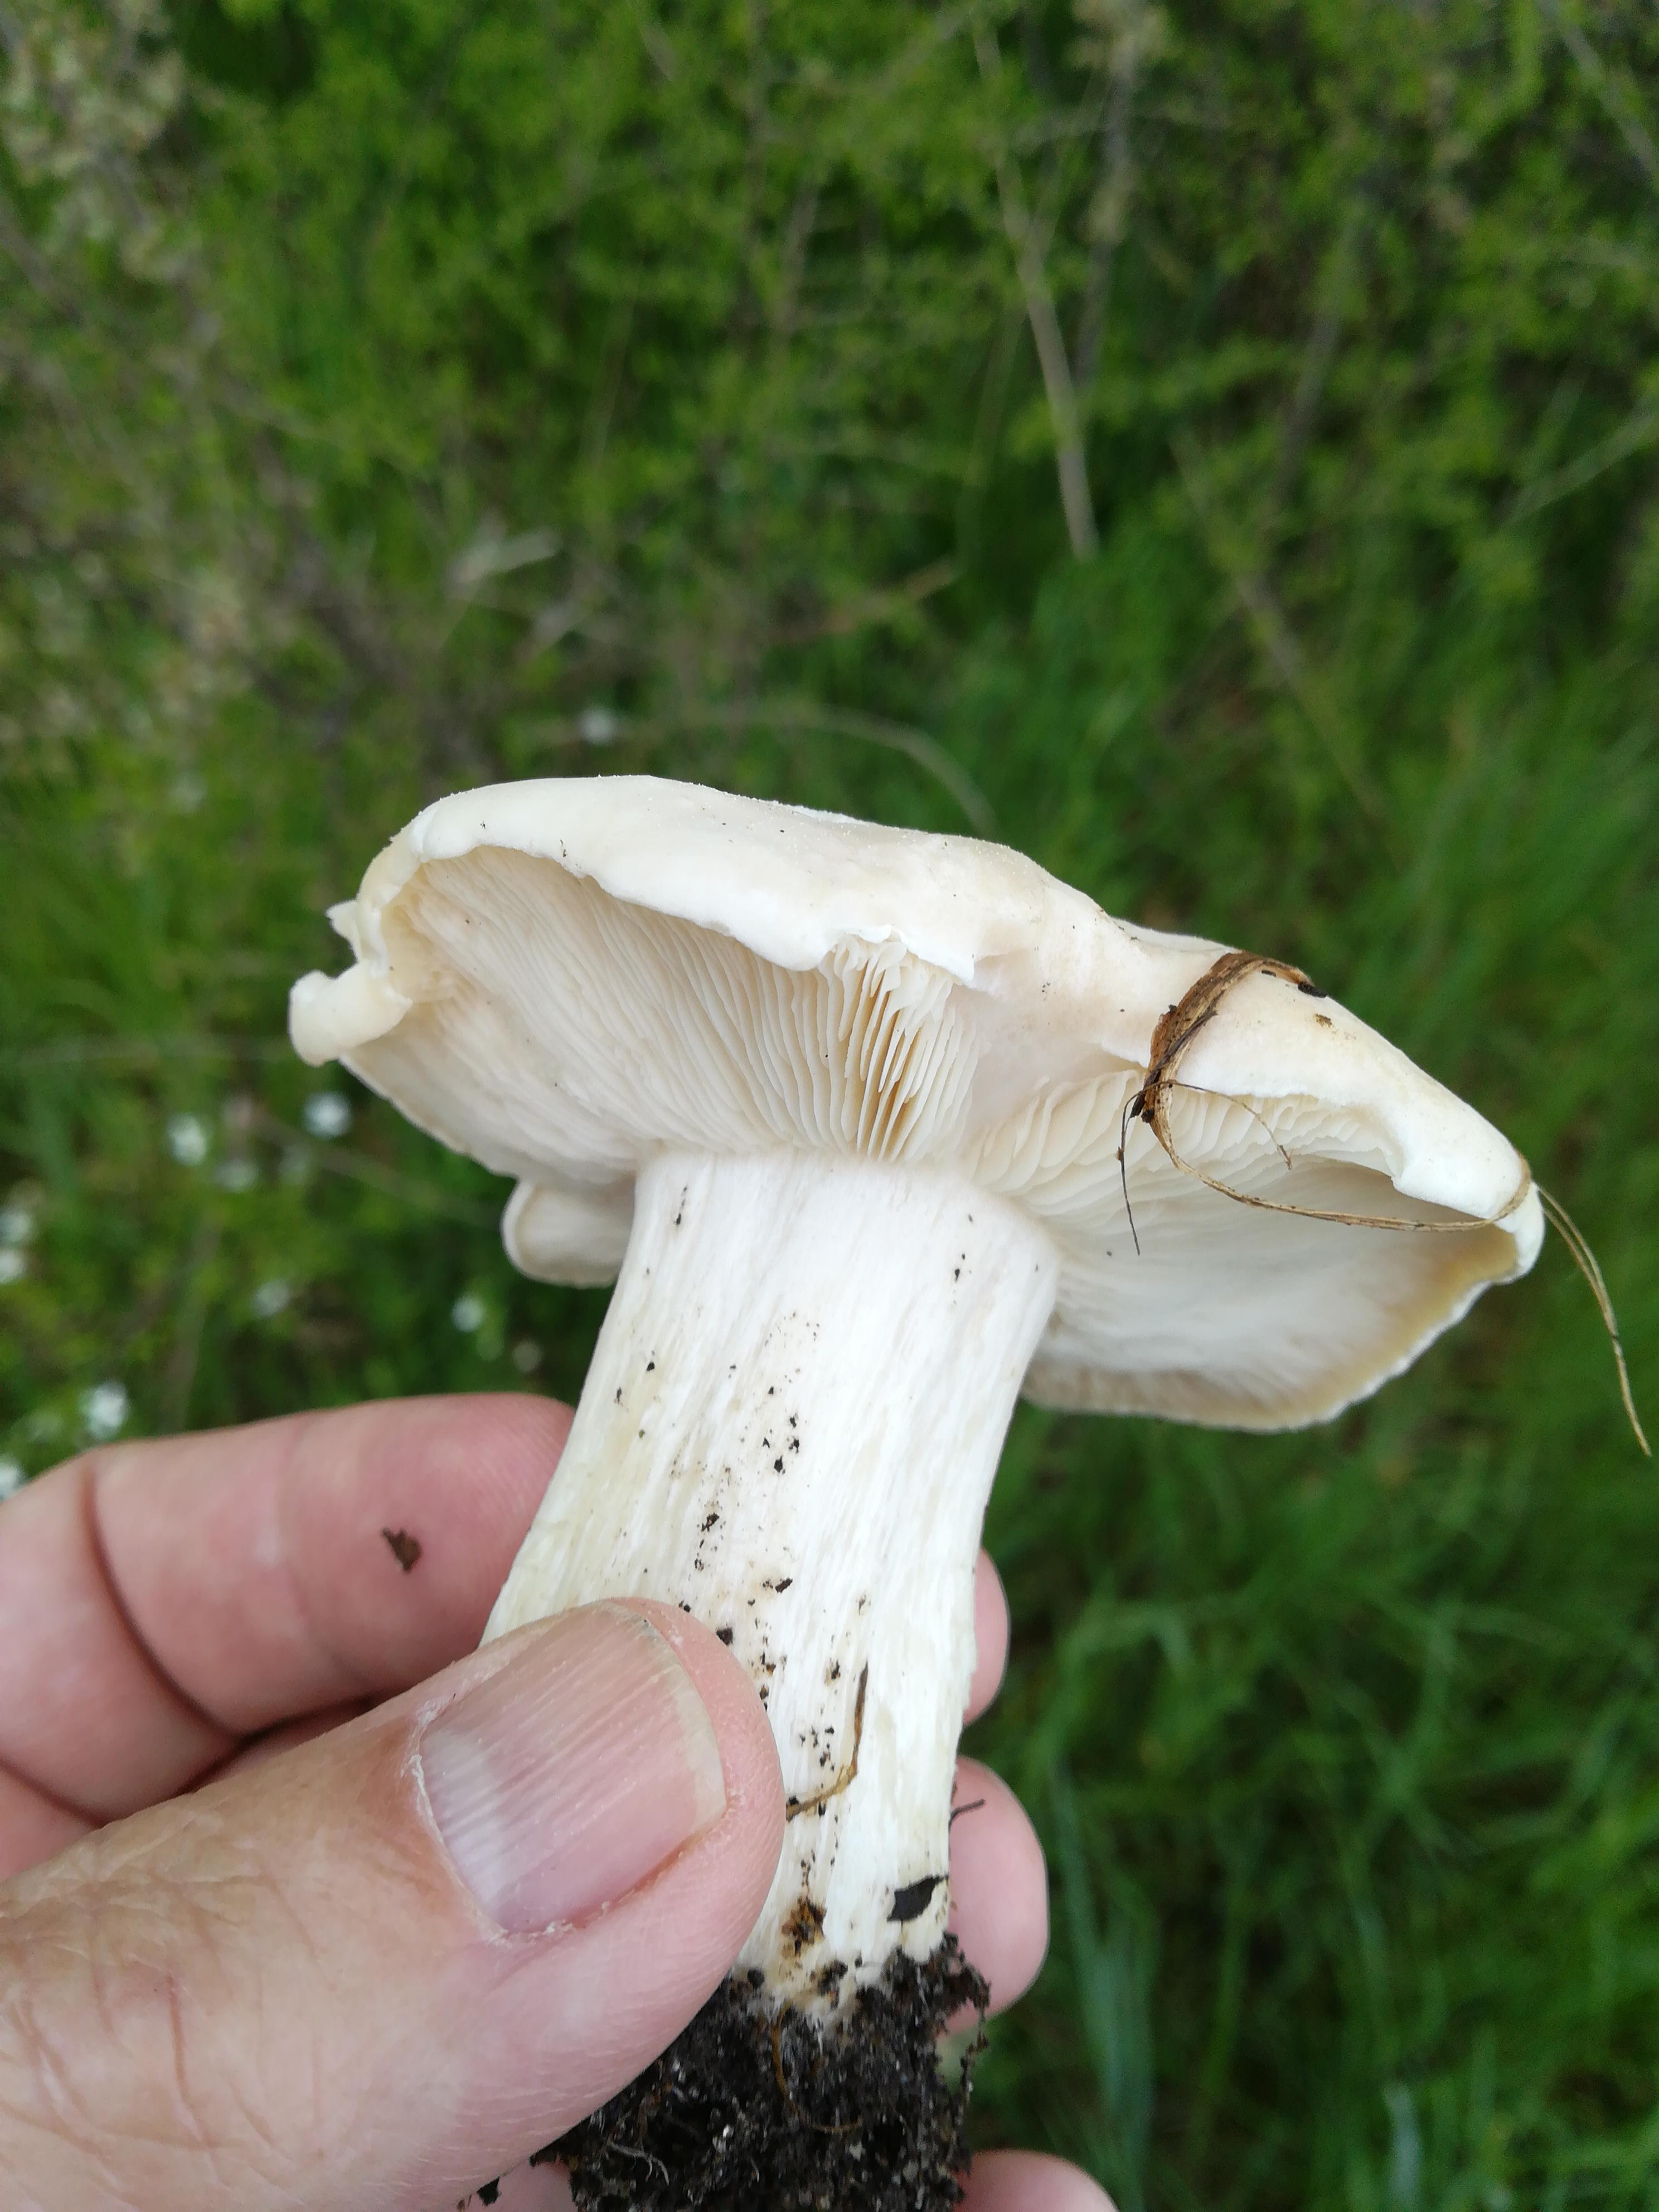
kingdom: Fungi
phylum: Basidiomycota
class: Agaricomycetes
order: Agaricales
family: Lyophyllaceae
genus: Calocybe
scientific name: Calocybe gambosa
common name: vårmusseron
